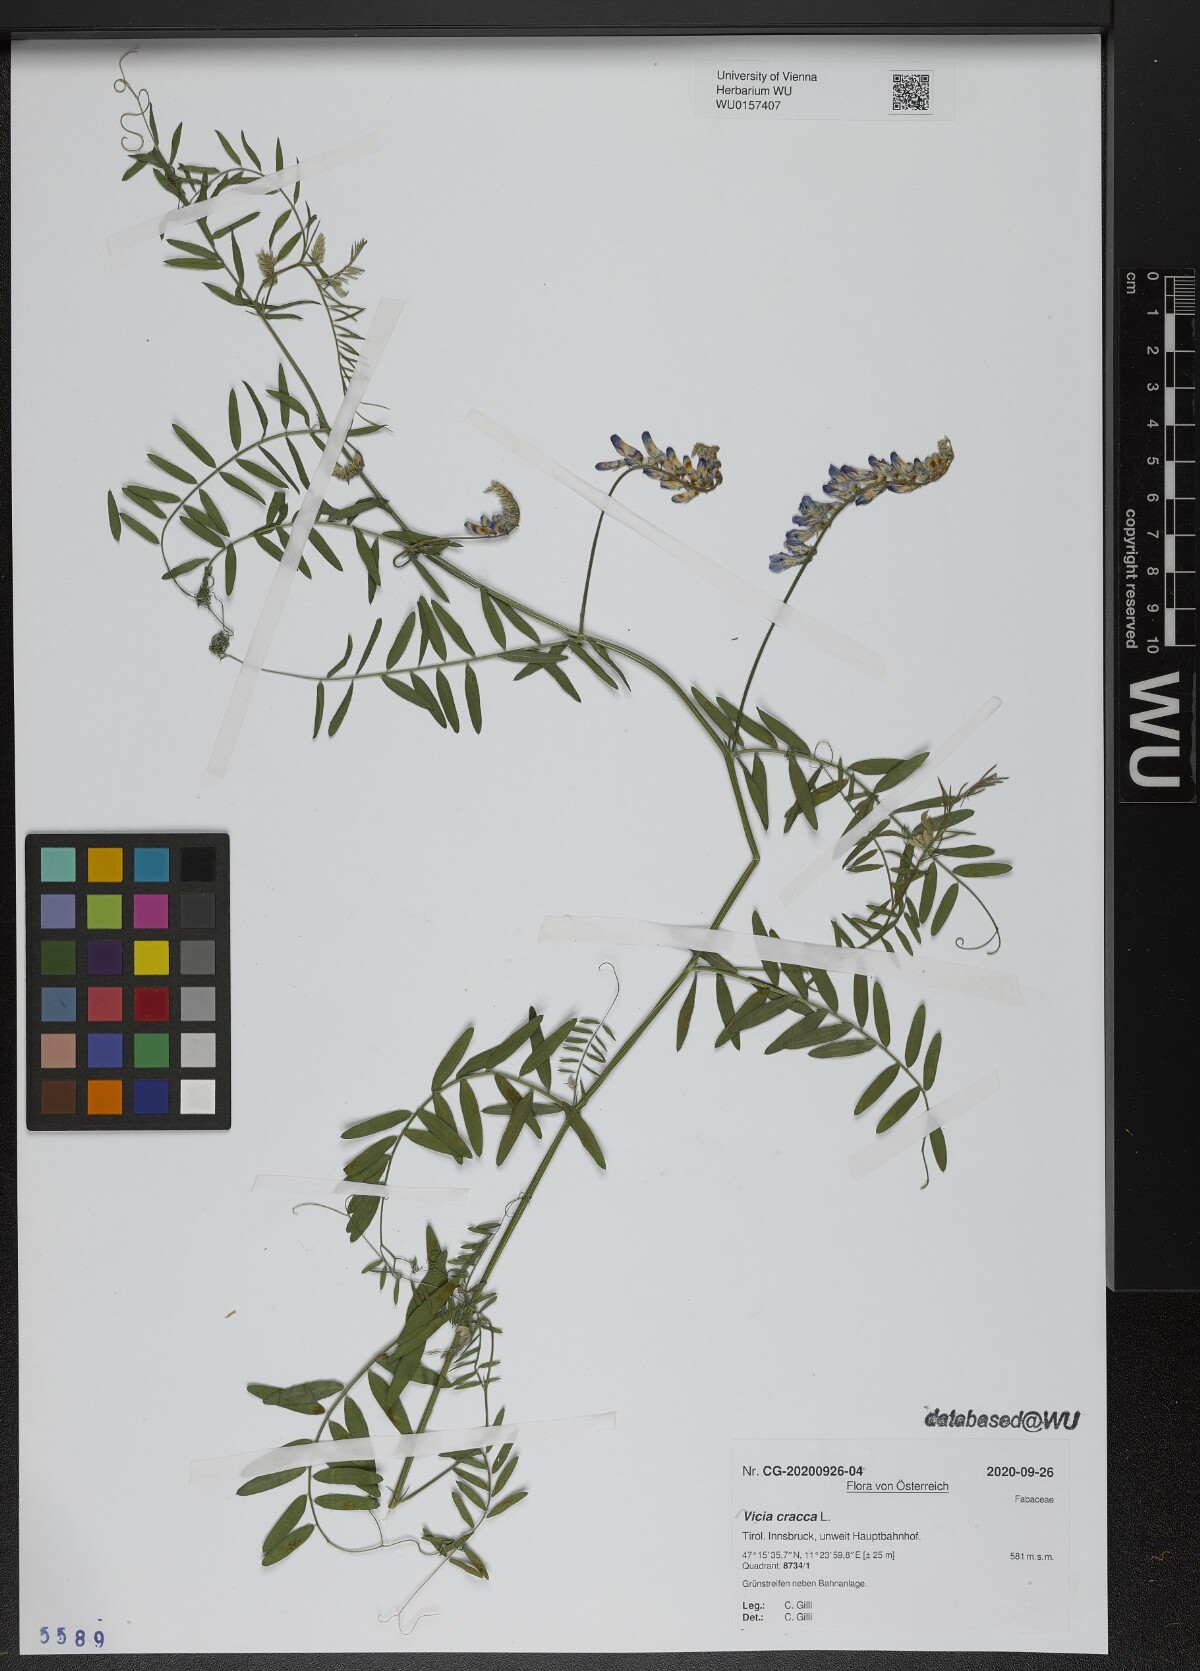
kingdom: Plantae
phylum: Tracheophyta
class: Magnoliopsida
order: Fabales
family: Fabaceae
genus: Vicia
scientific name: Vicia cracca
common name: Bird vetch
